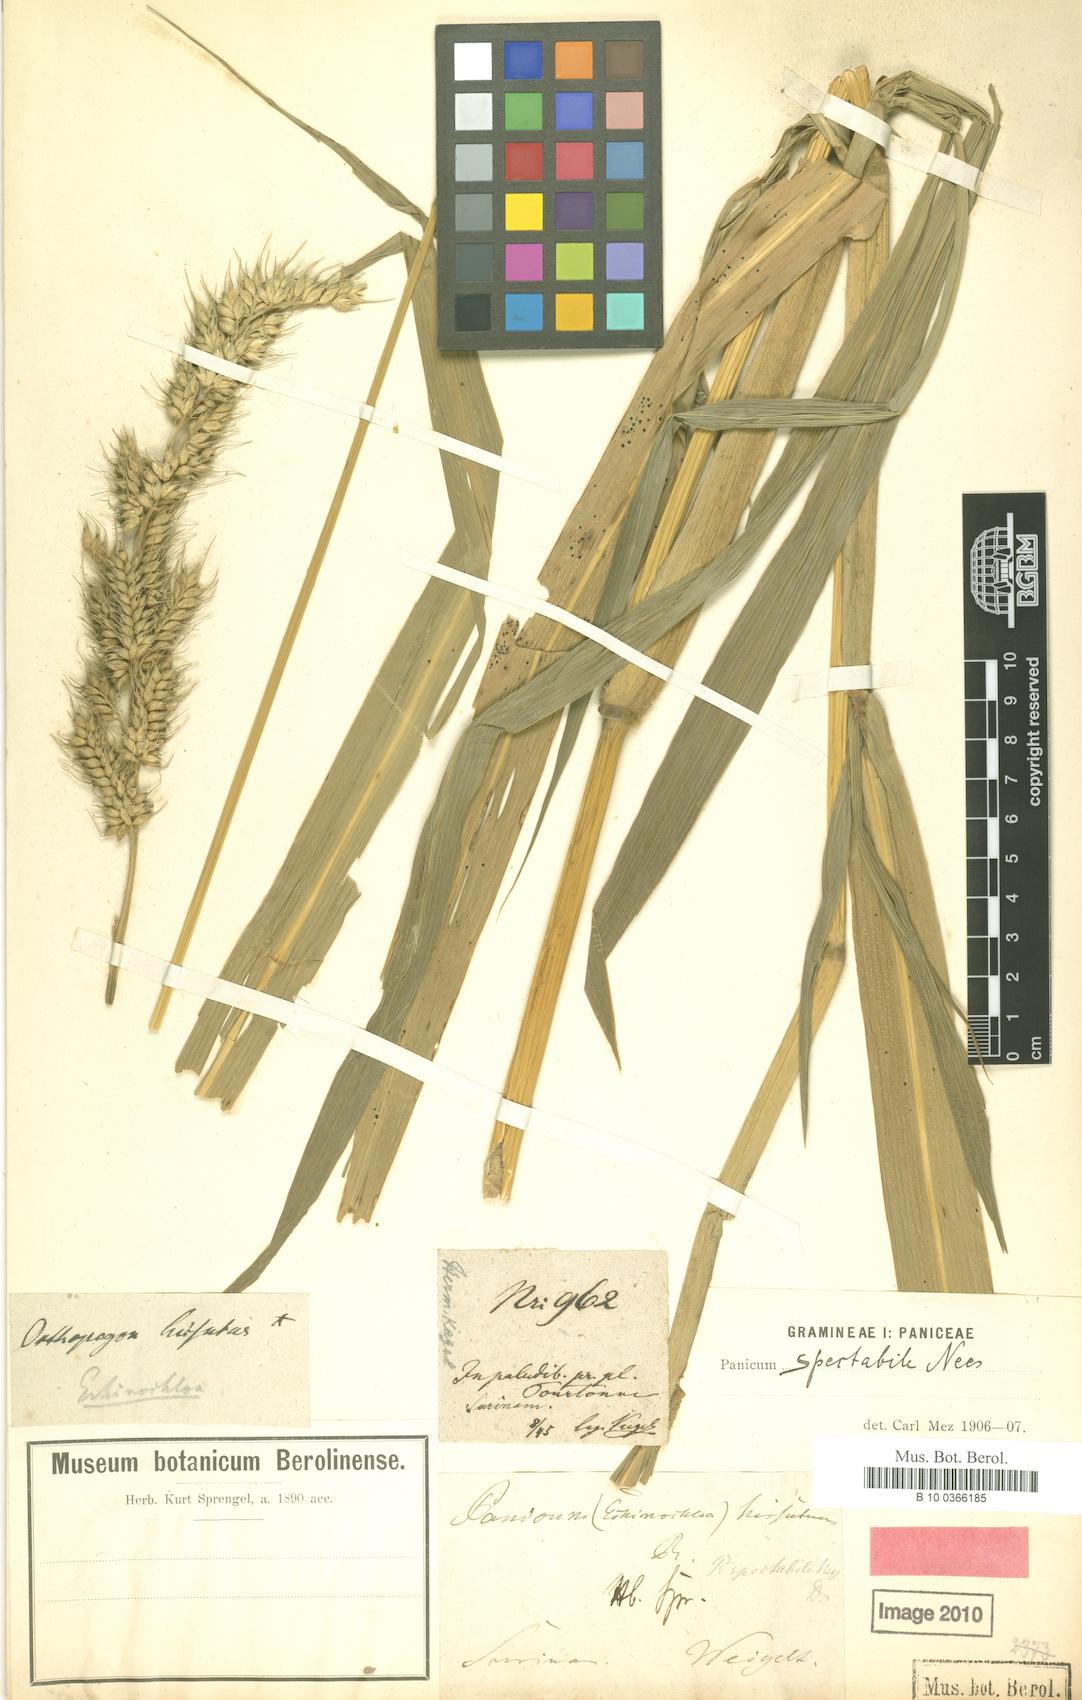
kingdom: Plantae
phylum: Tracheophyta
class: Liliopsida
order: Poales
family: Poaceae
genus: Echinochloa
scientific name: Echinochloa polystachya
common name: Creeping river grass
